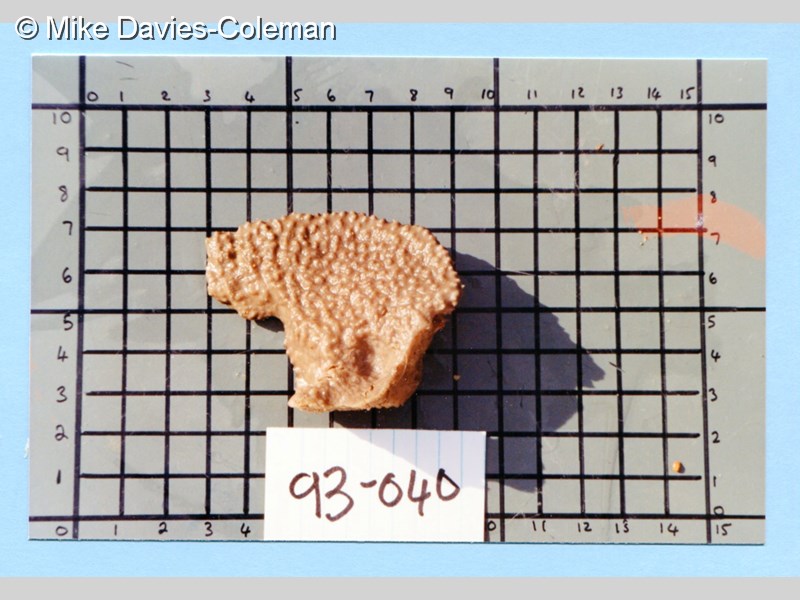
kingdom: Animalia
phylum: Porifera
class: Demospongiae
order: Axinellida
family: Axinellidae
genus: Axinella
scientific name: Axinella
